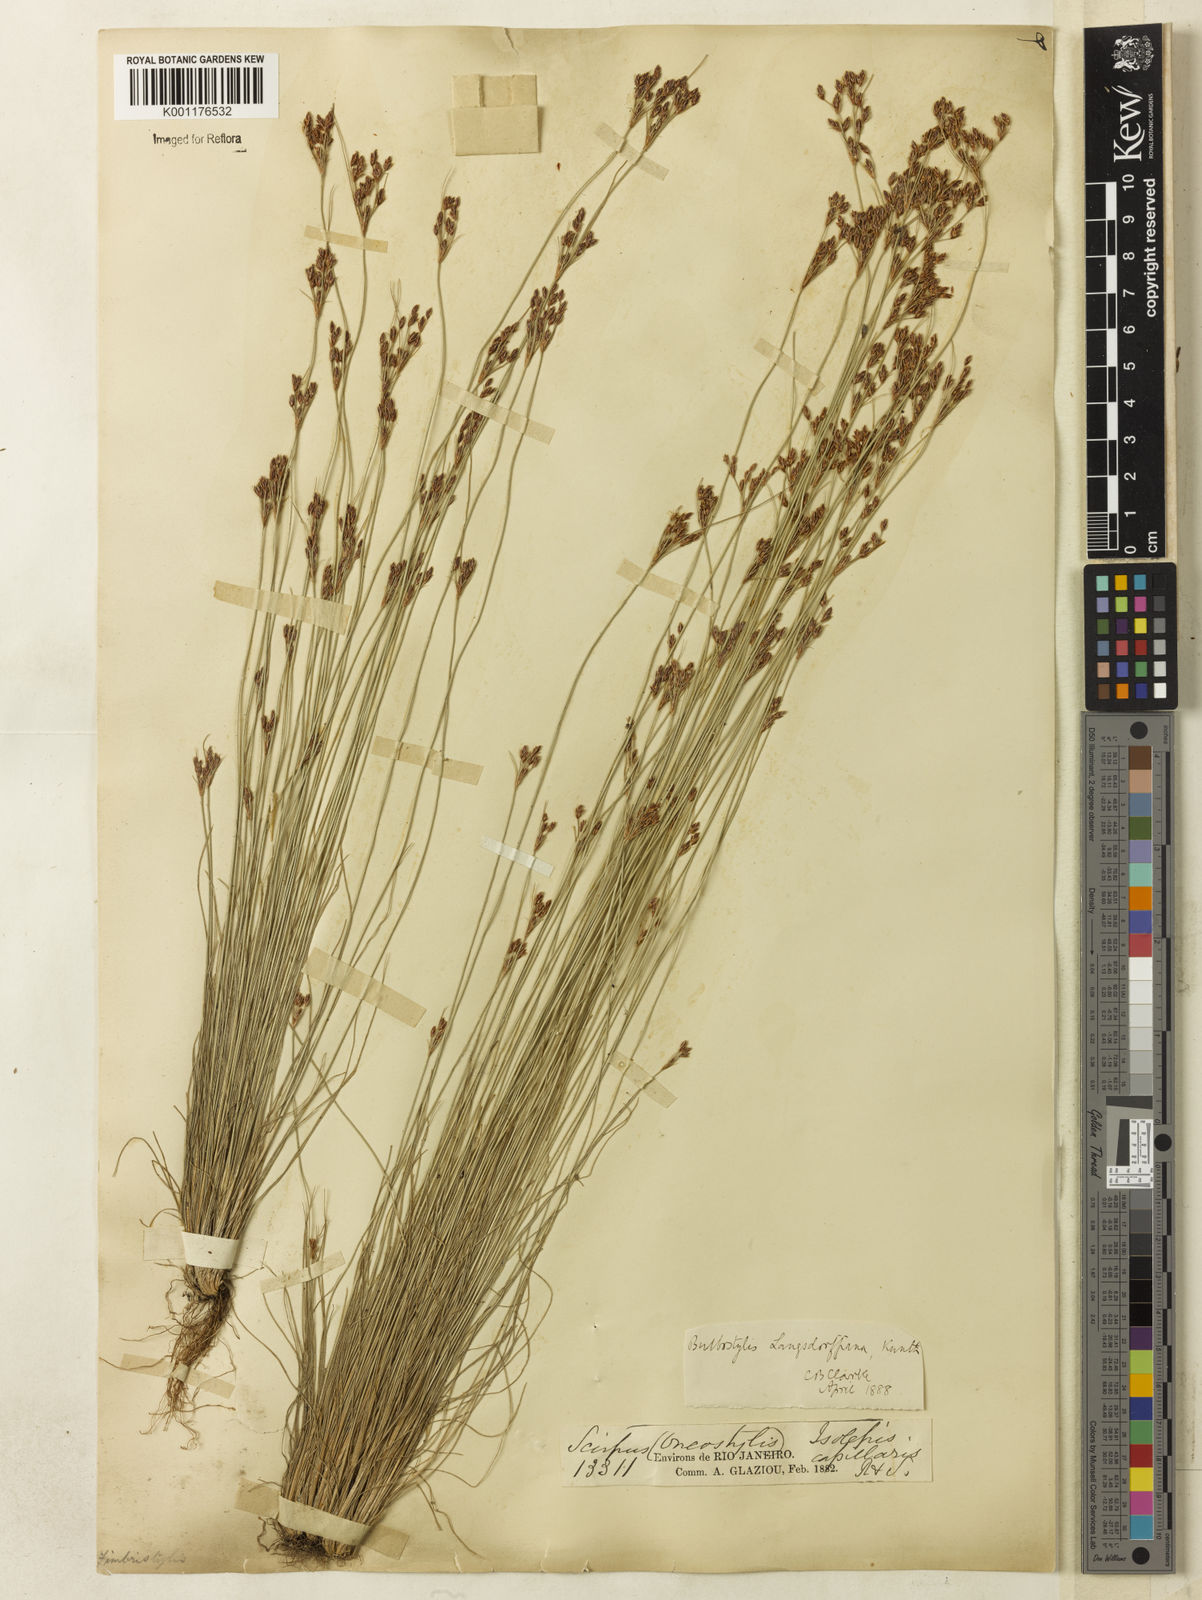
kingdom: Plantae
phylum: Tracheophyta
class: Liliopsida
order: Poales
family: Cyperaceae
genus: Bulbostylis
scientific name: Bulbostylis juncoides
